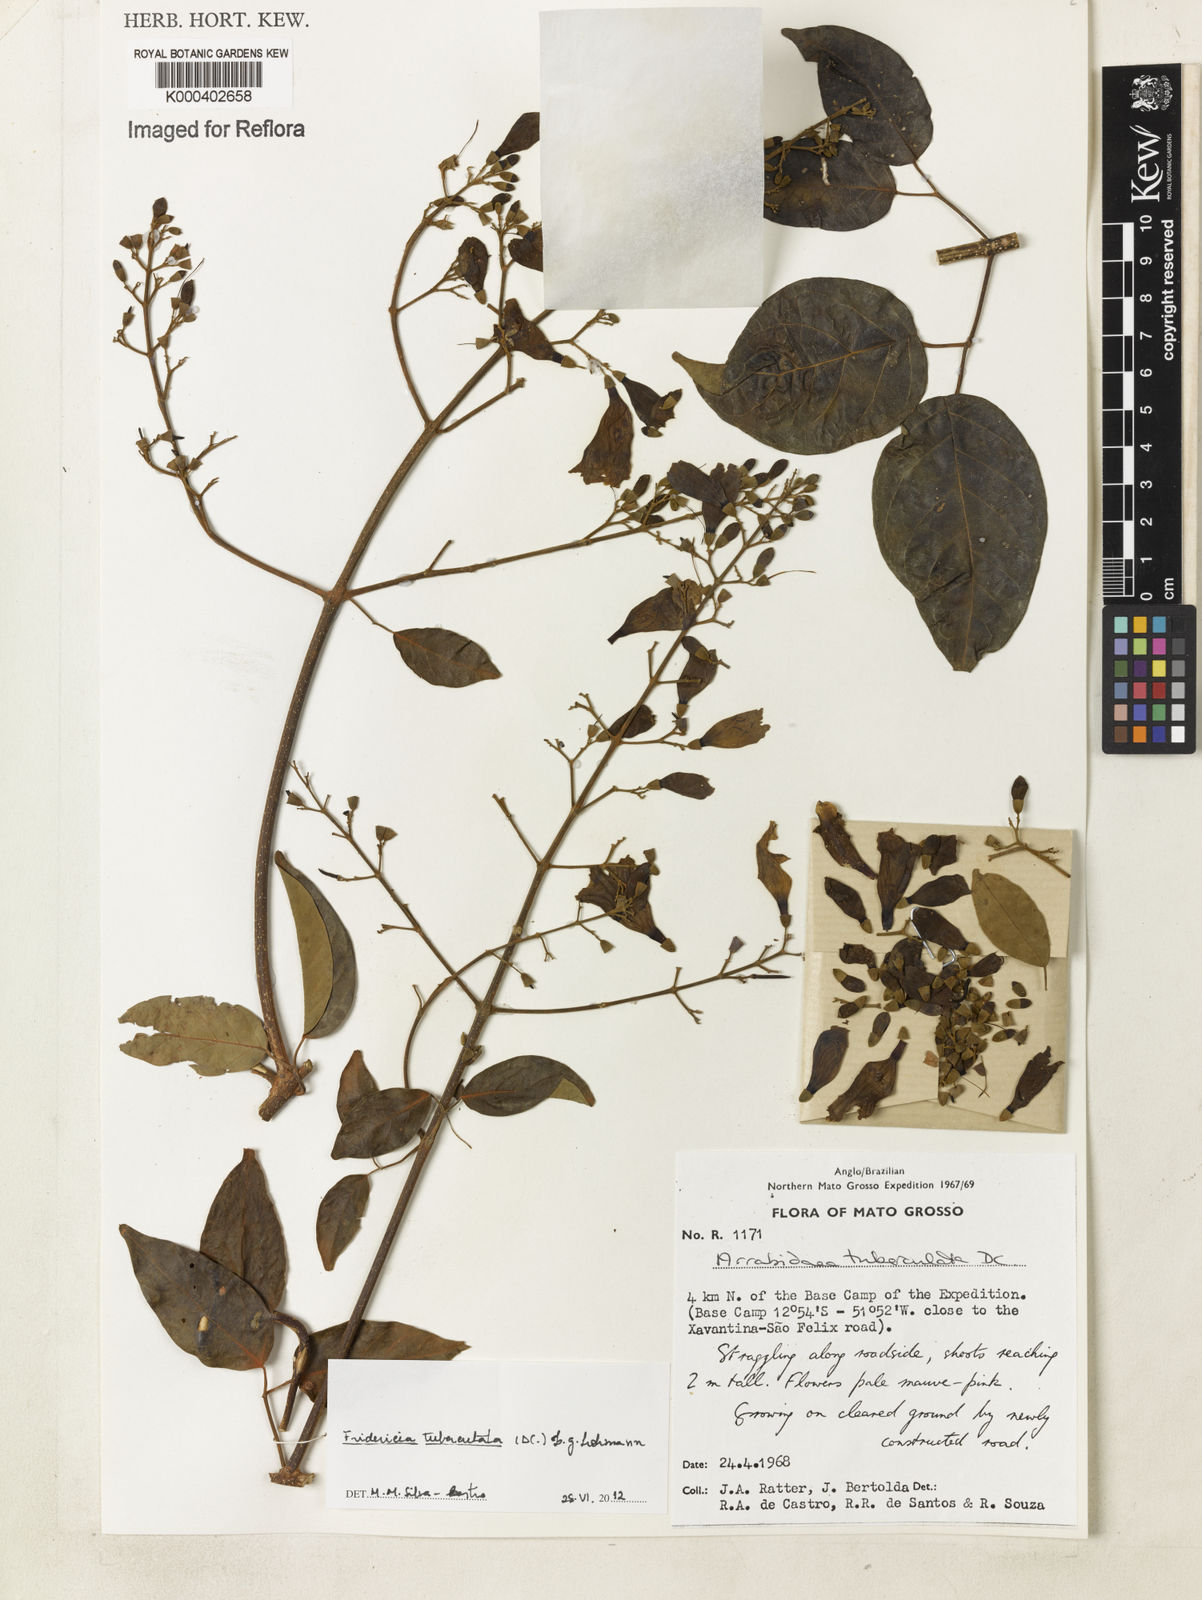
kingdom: Plantae
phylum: Tracheophyta
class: Magnoliopsida
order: Lamiales
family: Bignoniaceae
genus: Fridericia
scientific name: Fridericia tuberculata
